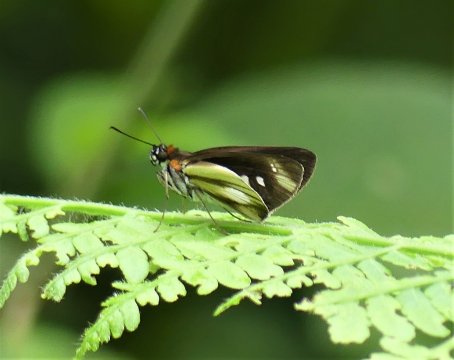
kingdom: Animalia
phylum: Arthropoda
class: Insecta
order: Lepidoptera
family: Hesperiidae
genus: Vettius
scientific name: Vettius phyllus
